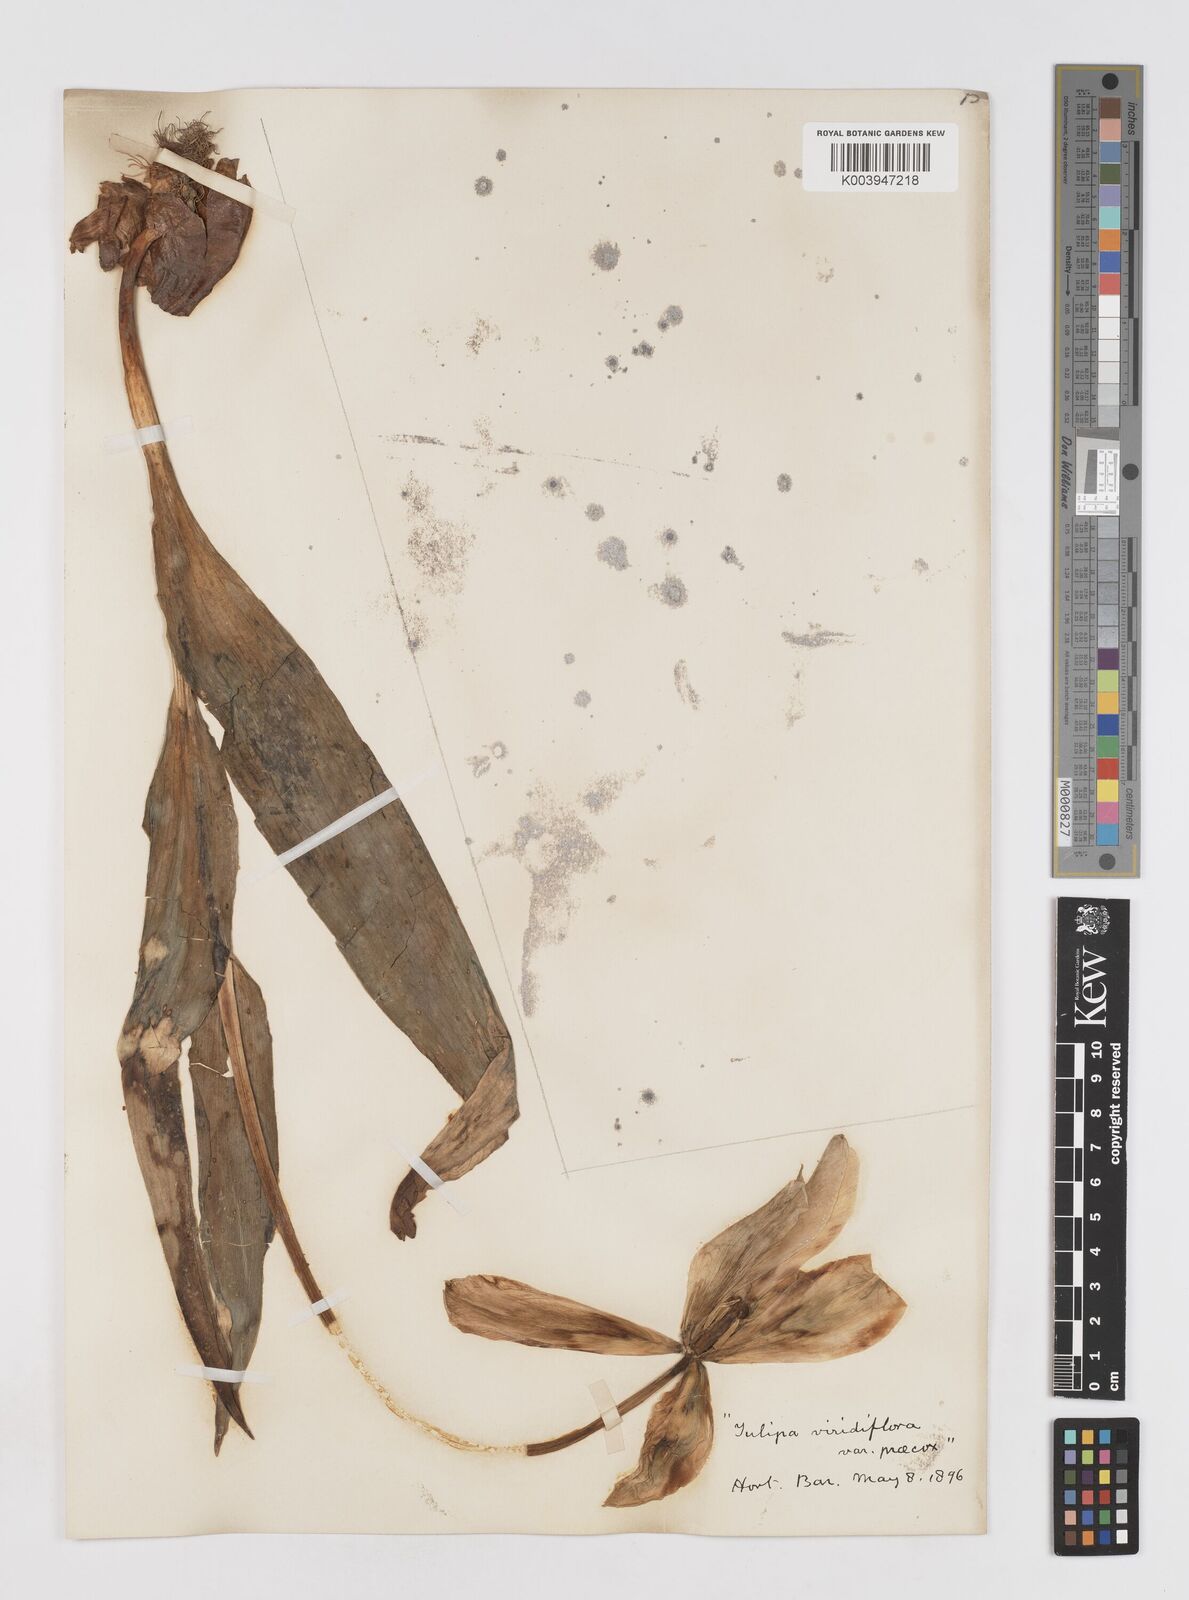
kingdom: Plantae
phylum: Tracheophyta
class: Liliopsida
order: Liliales
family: Liliaceae
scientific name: Liliaceae
